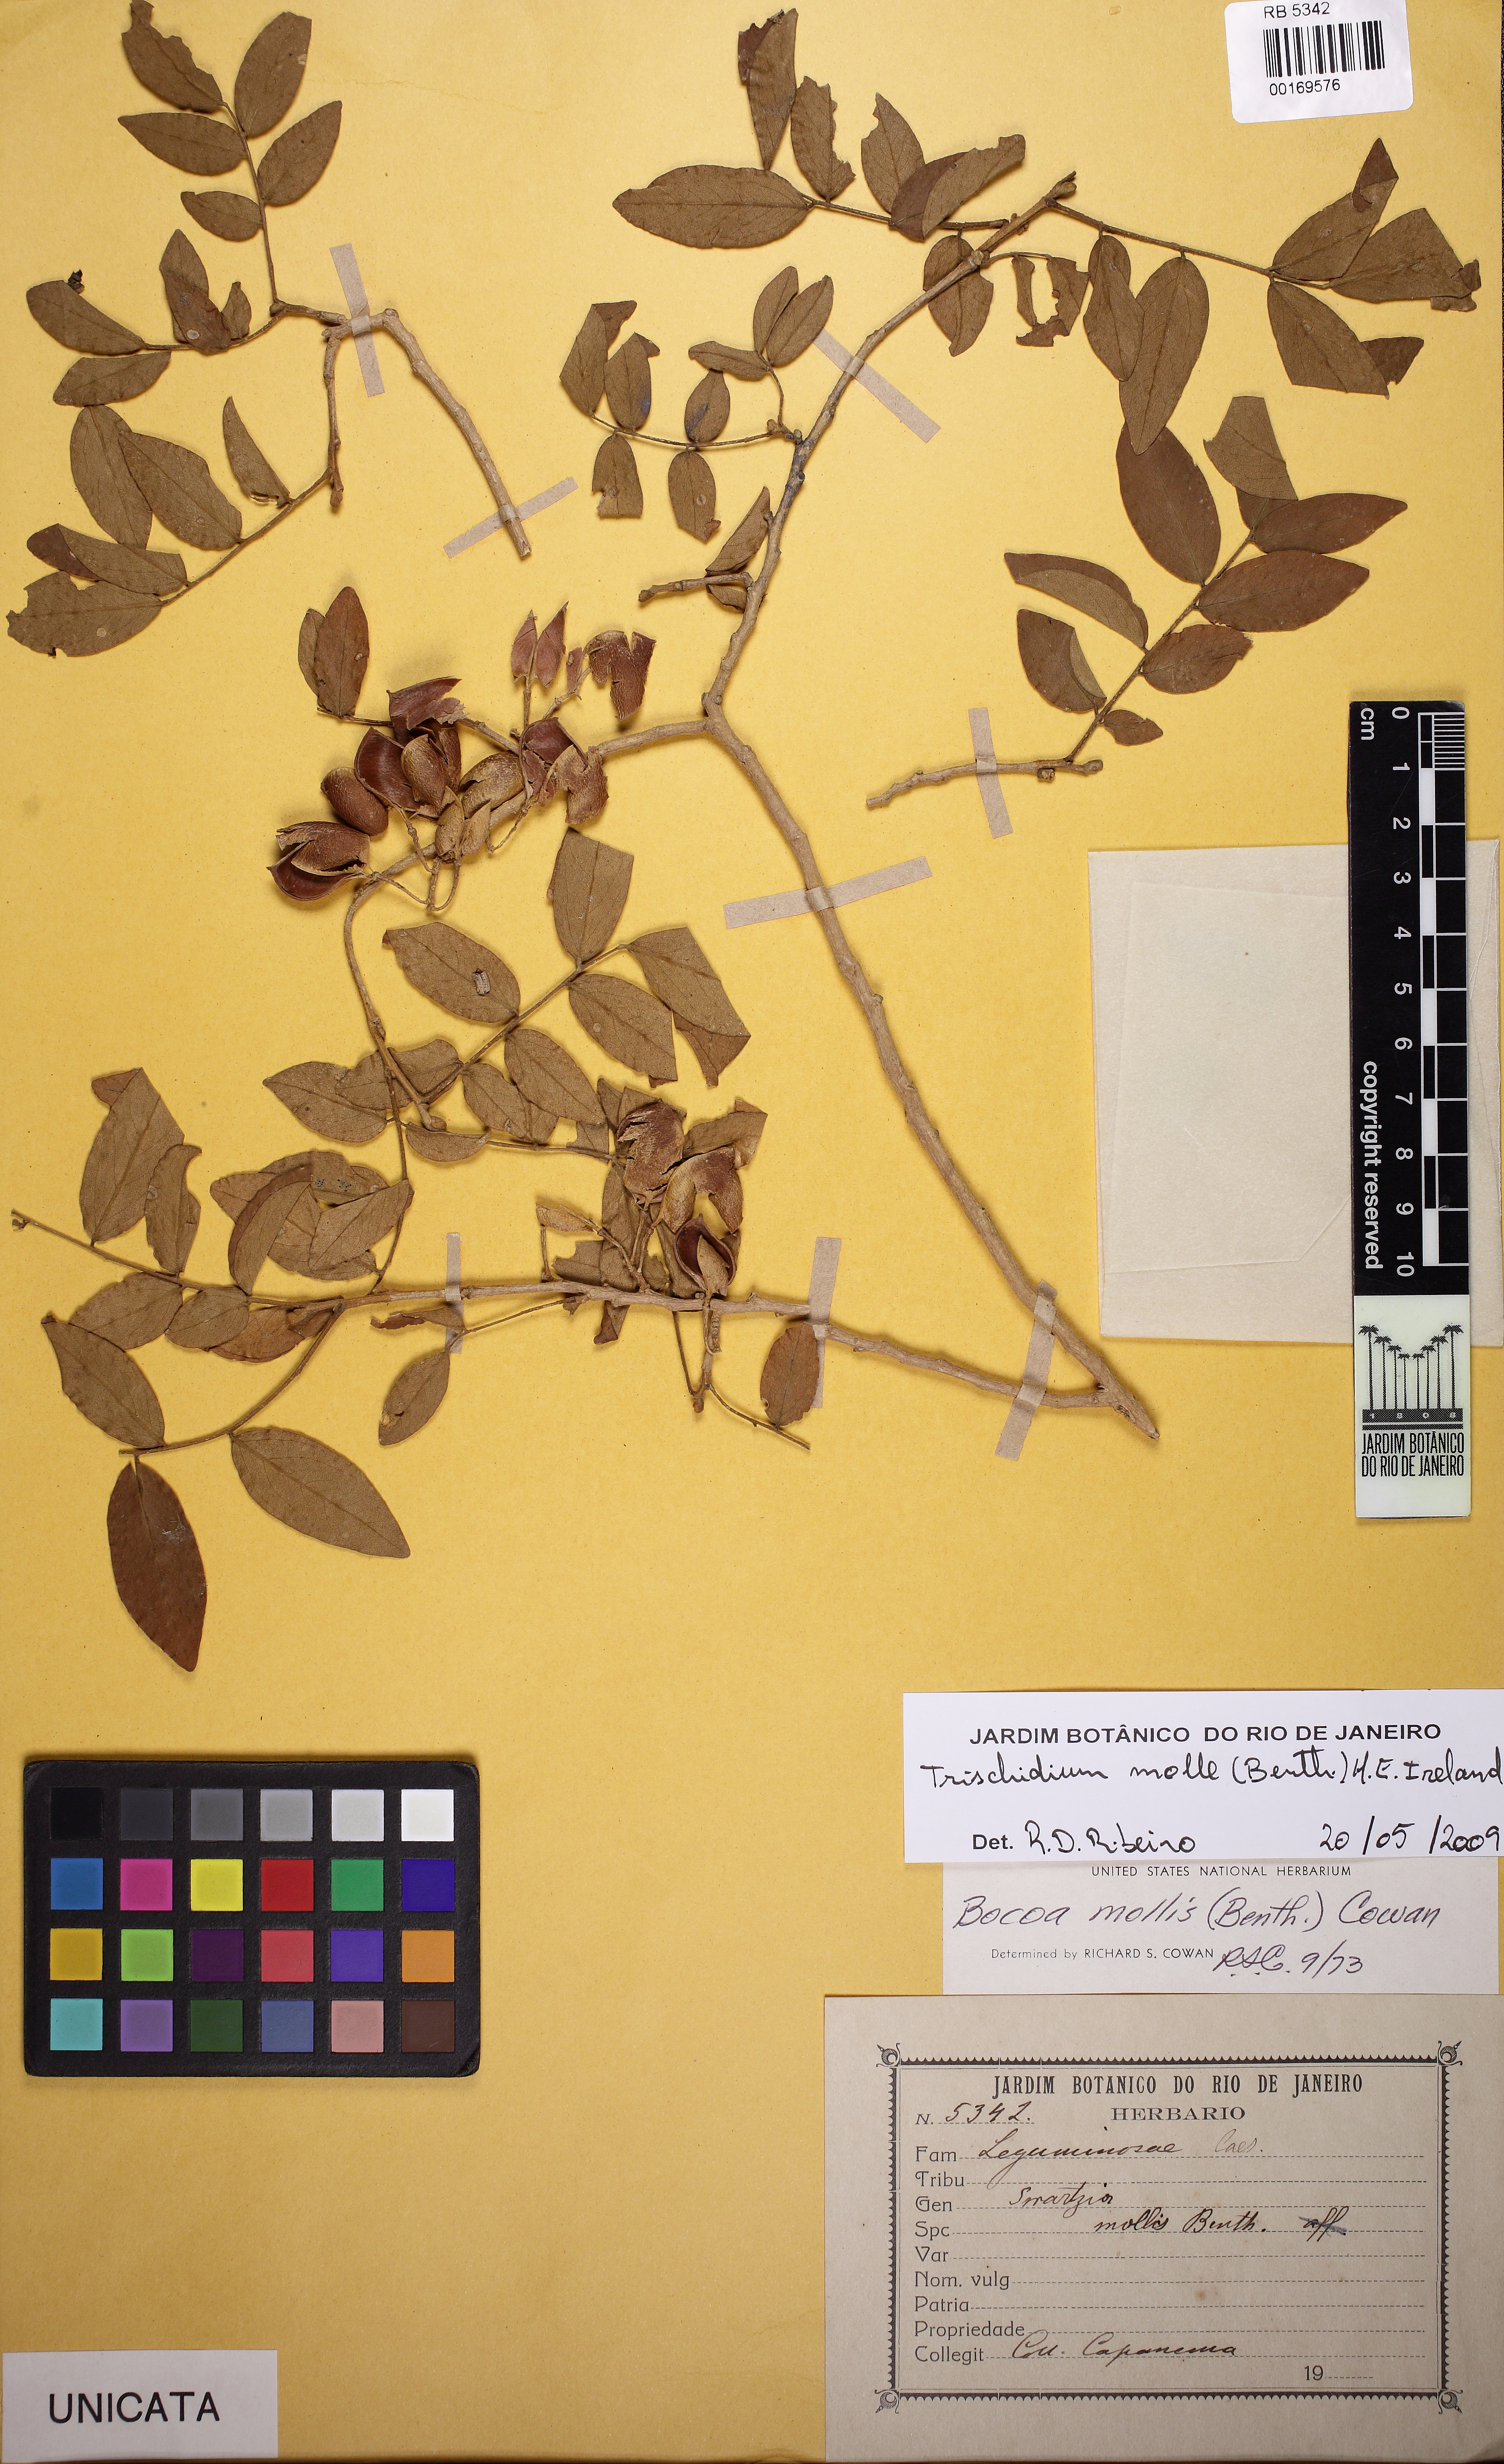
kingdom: Plantae
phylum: Tracheophyta
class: Magnoliopsida
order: Fabales
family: Fabaceae
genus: Trischidium
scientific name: Trischidium molle
